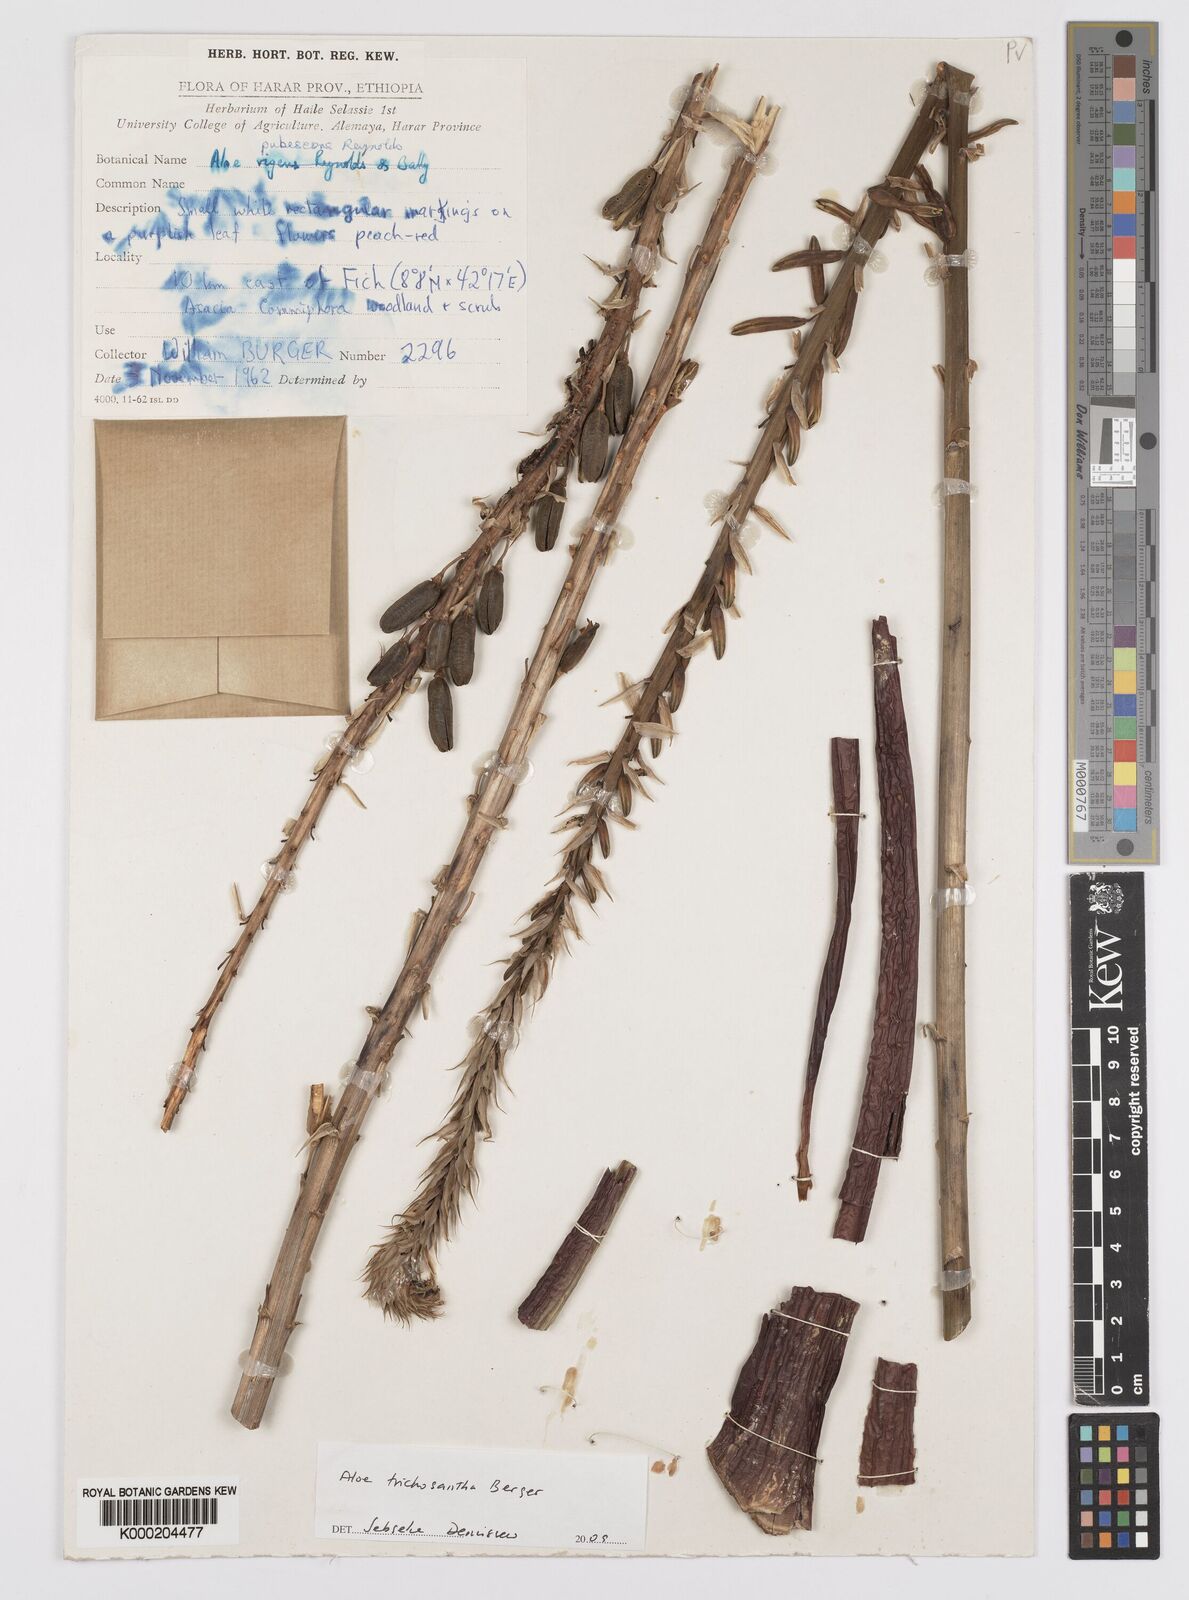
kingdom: Plantae
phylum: Tracheophyta
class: Liliopsida
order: Asparagales
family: Asphodelaceae
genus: Aloe
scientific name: Aloe trichosantha
